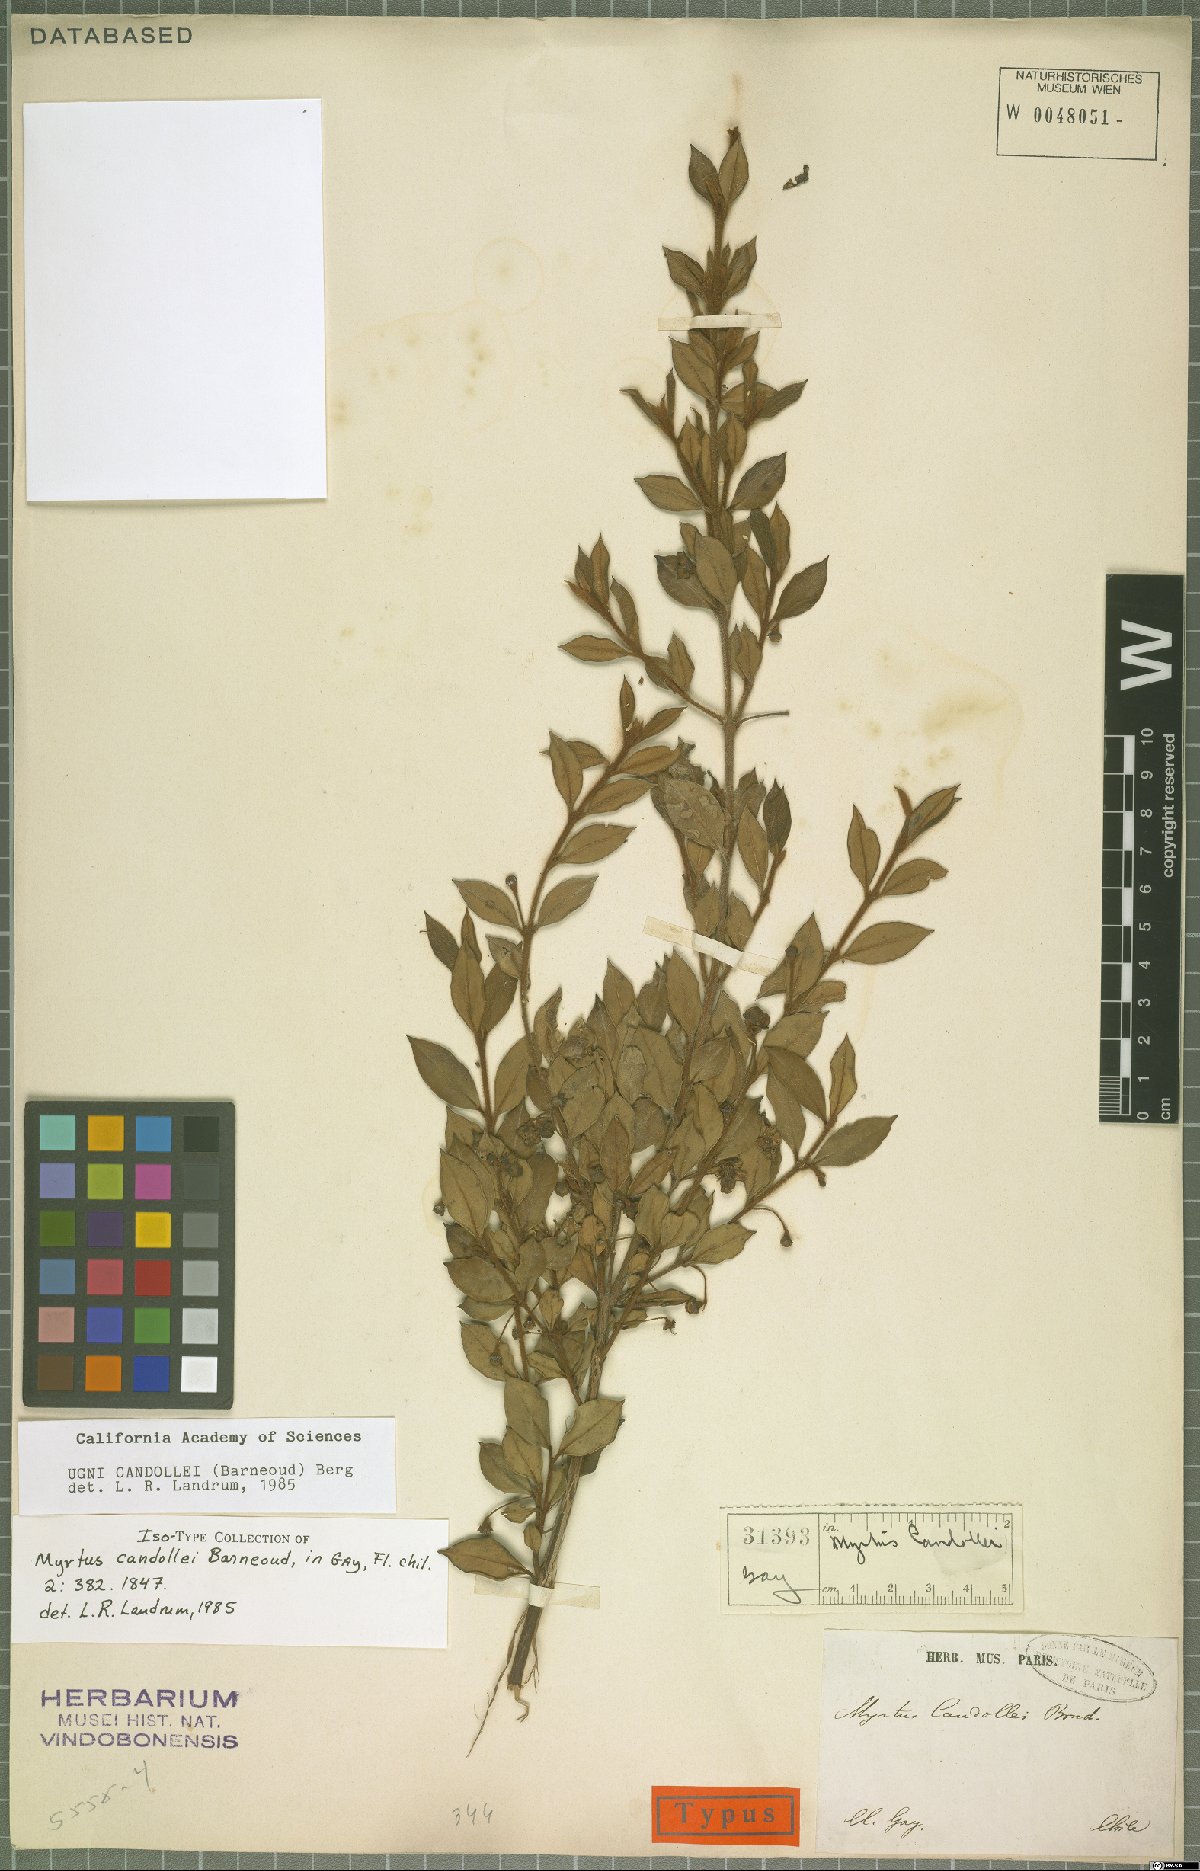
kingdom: Plantae
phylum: Tracheophyta
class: Magnoliopsida
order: Myrtales
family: Myrtaceae
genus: Ugni
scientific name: Ugni candollei
